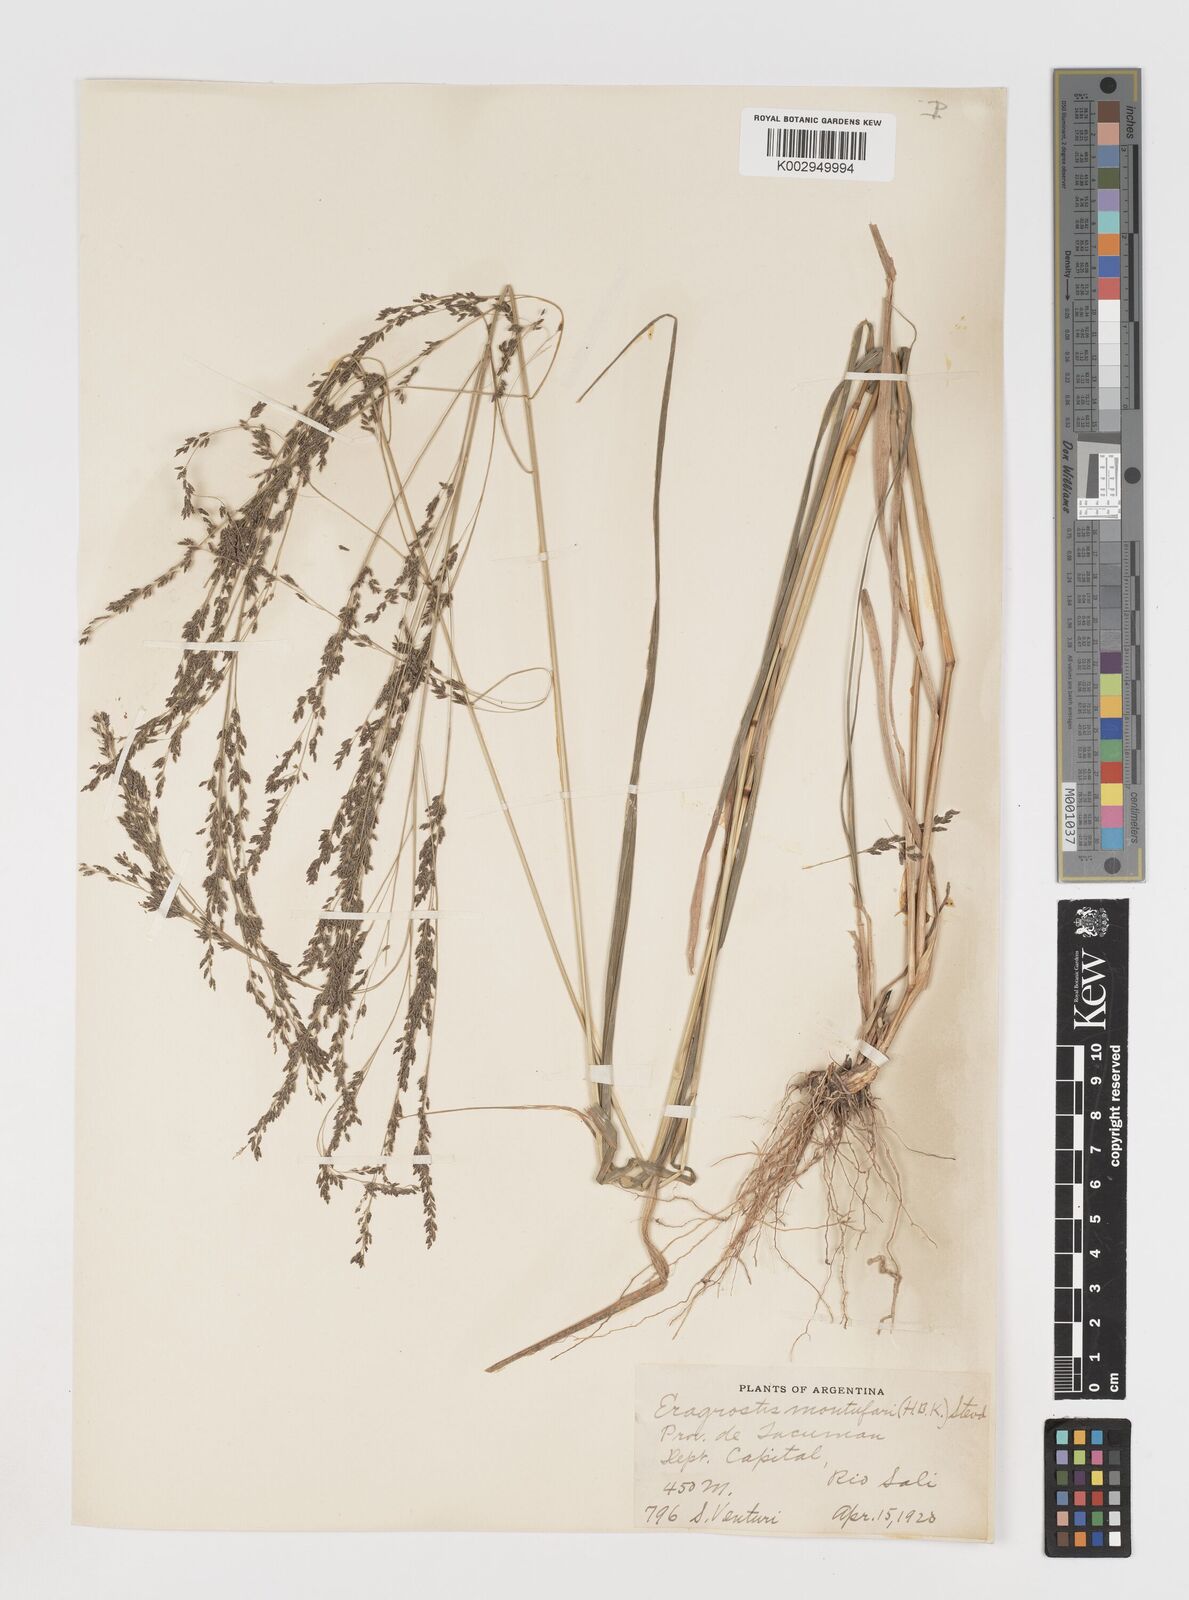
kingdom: Plantae
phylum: Tracheophyta
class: Liliopsida
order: Poales
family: Poaceae
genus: Eragrostis
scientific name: Eragrostis pastoensis
